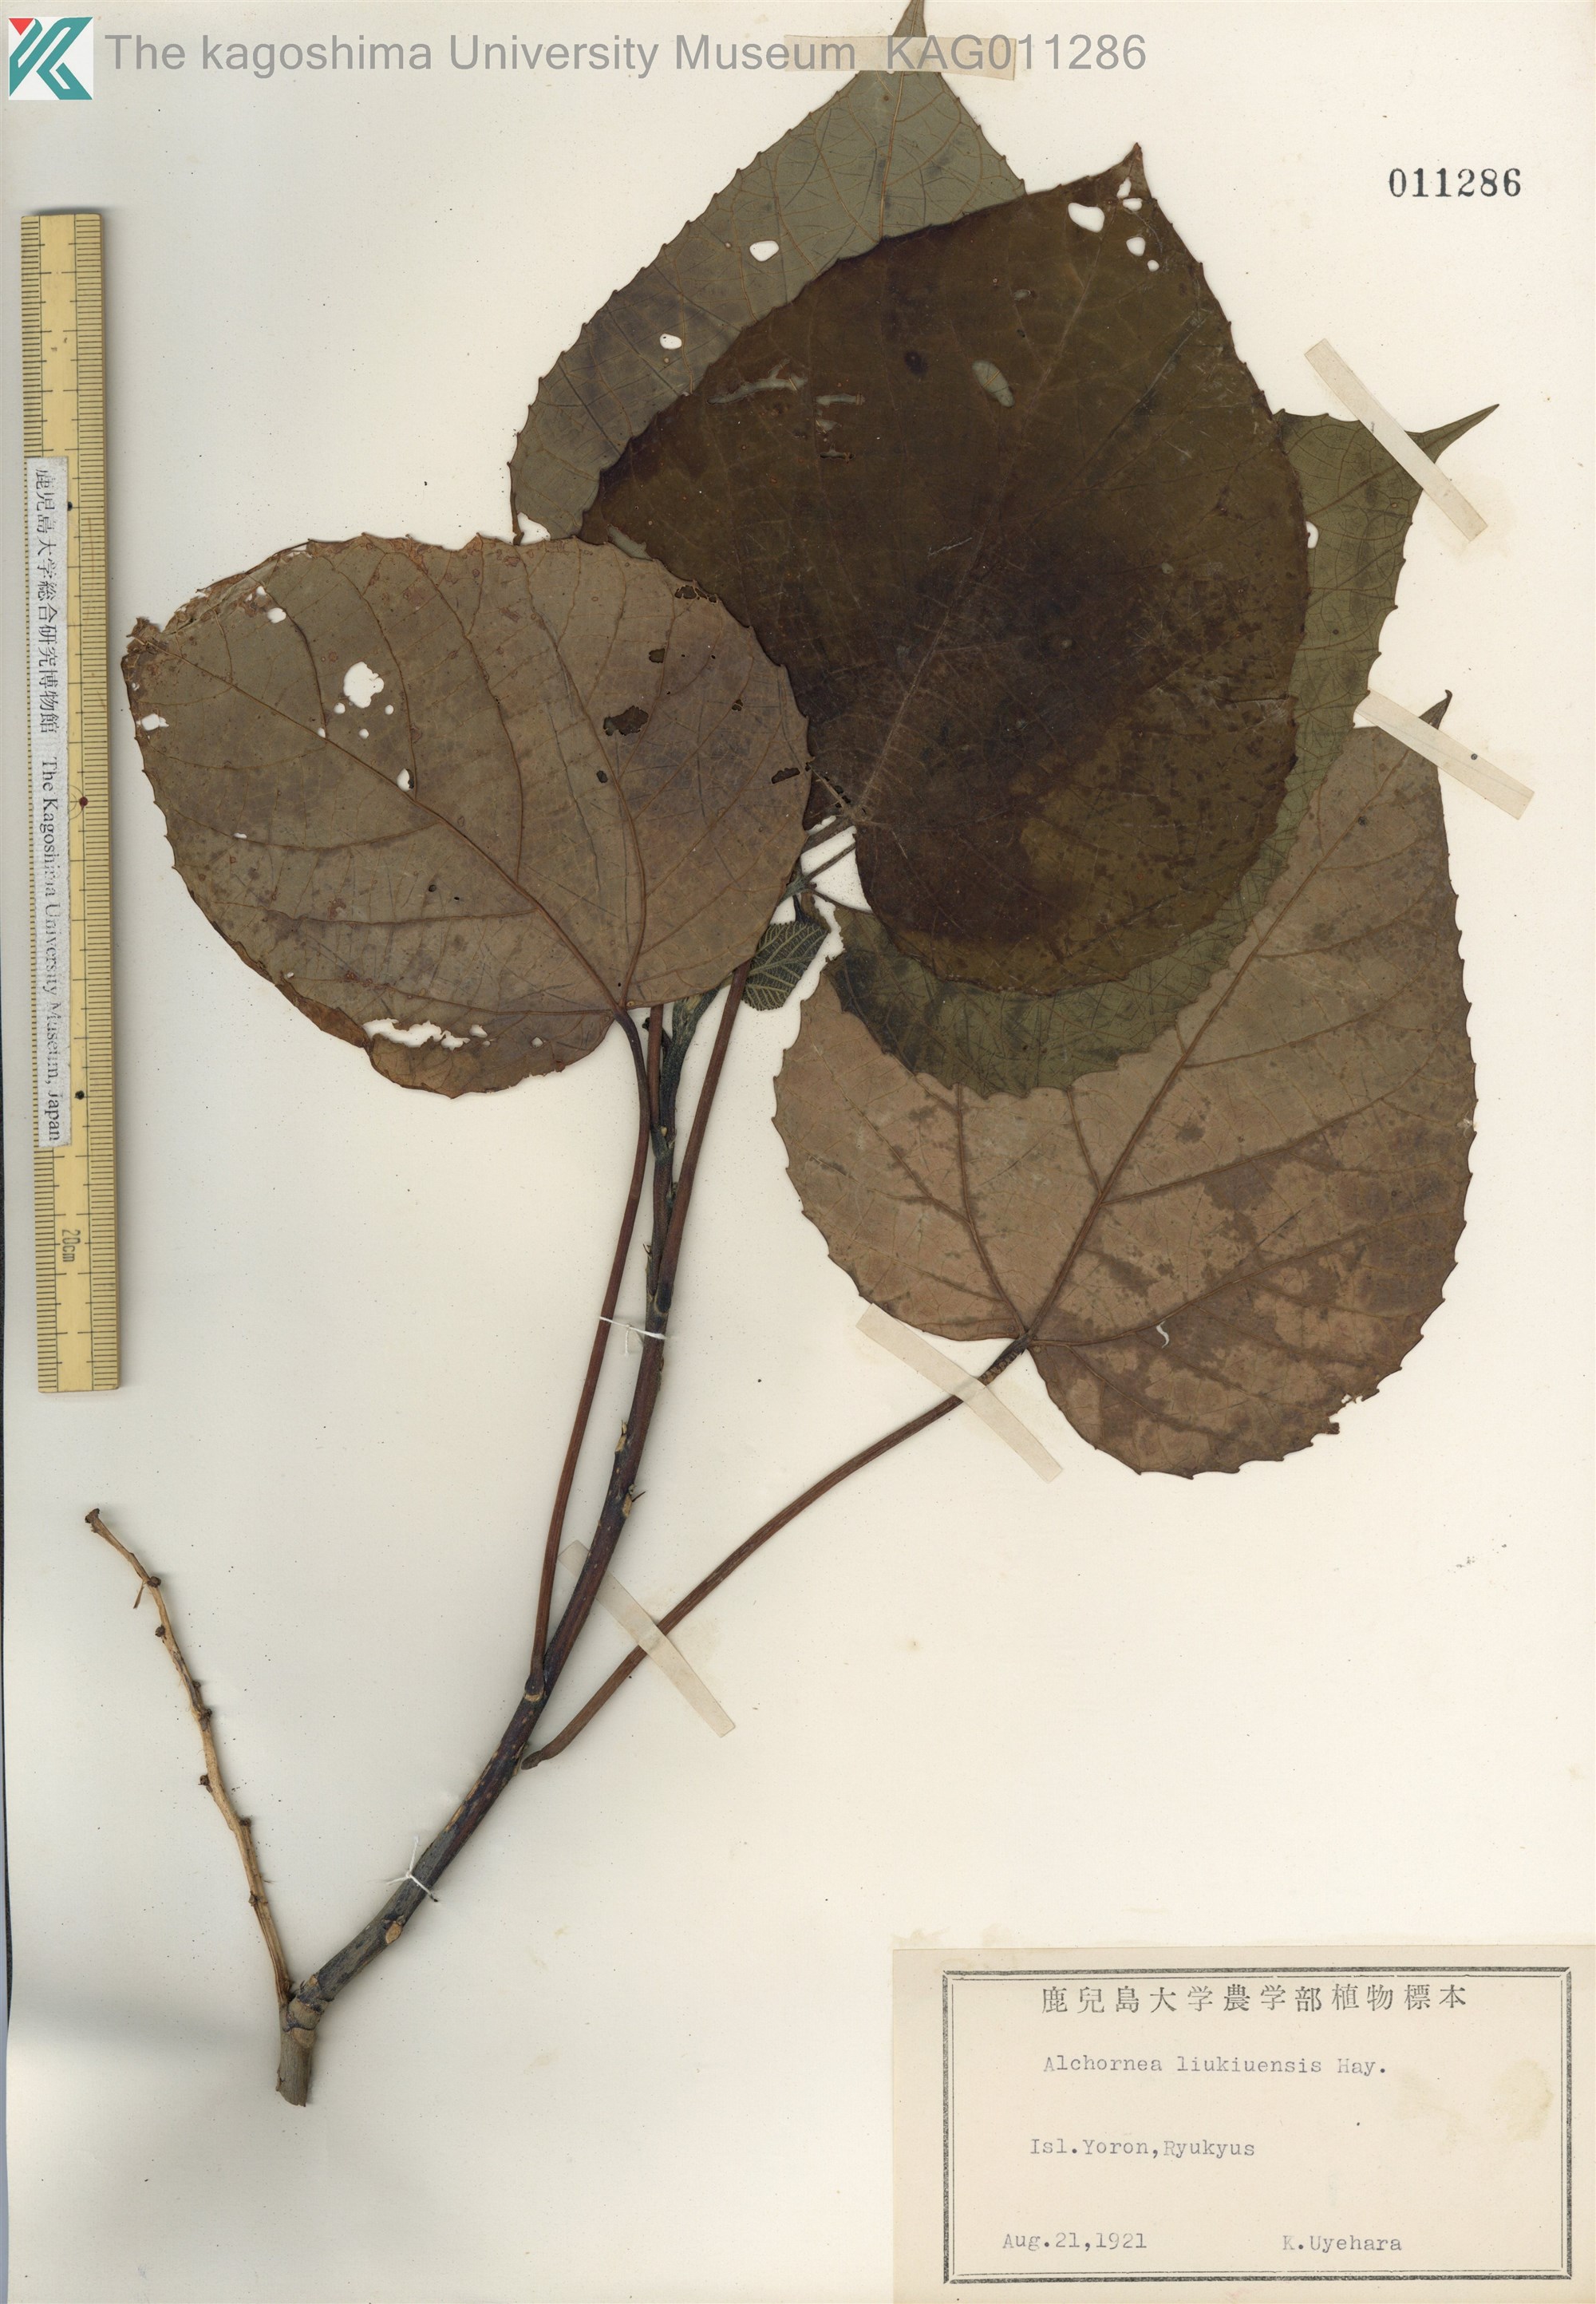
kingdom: Plantae
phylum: Tracheophyta
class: Magnoliopsida
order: Malpighiales
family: Euphorbiaceae
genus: Alchornea
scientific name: Alchornea liukiuensis
